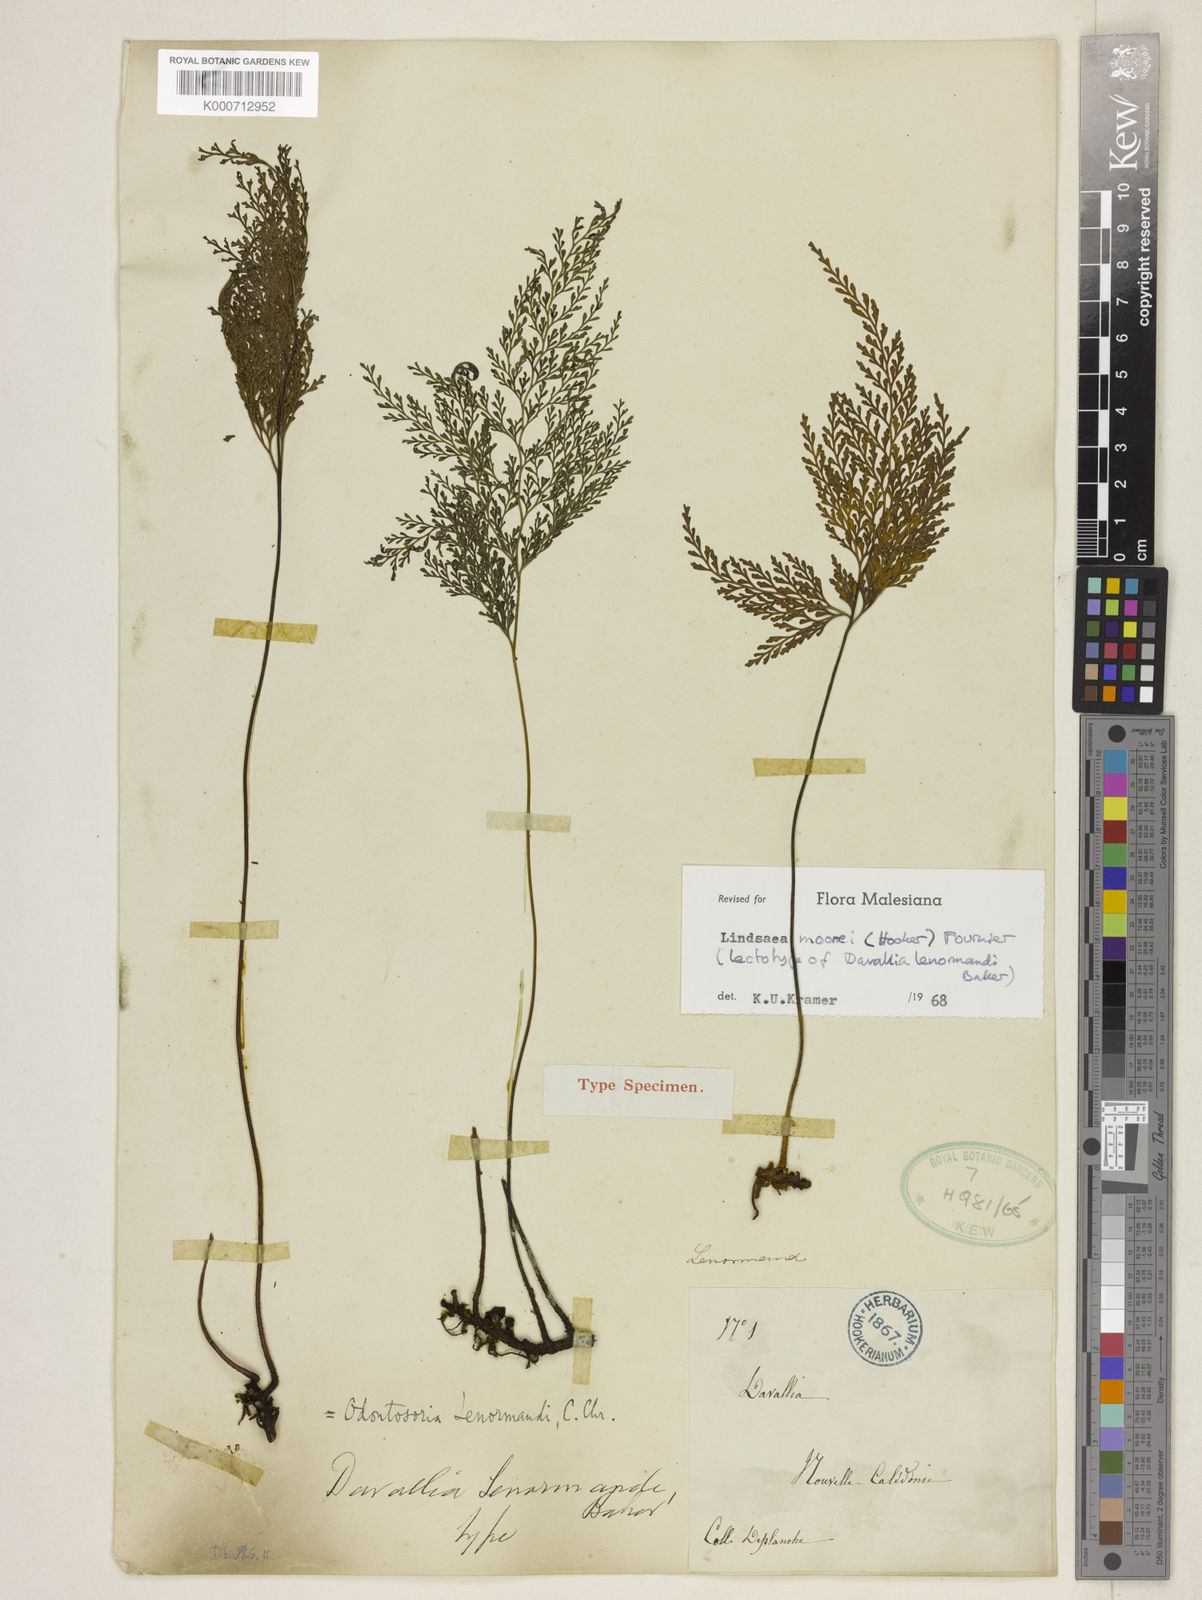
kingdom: Plantae
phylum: Tracheophyta
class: Polypodiopsida
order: Polypodiales
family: Lindsaeaceae
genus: Tapeinidium
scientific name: Tapeinidium moorei
